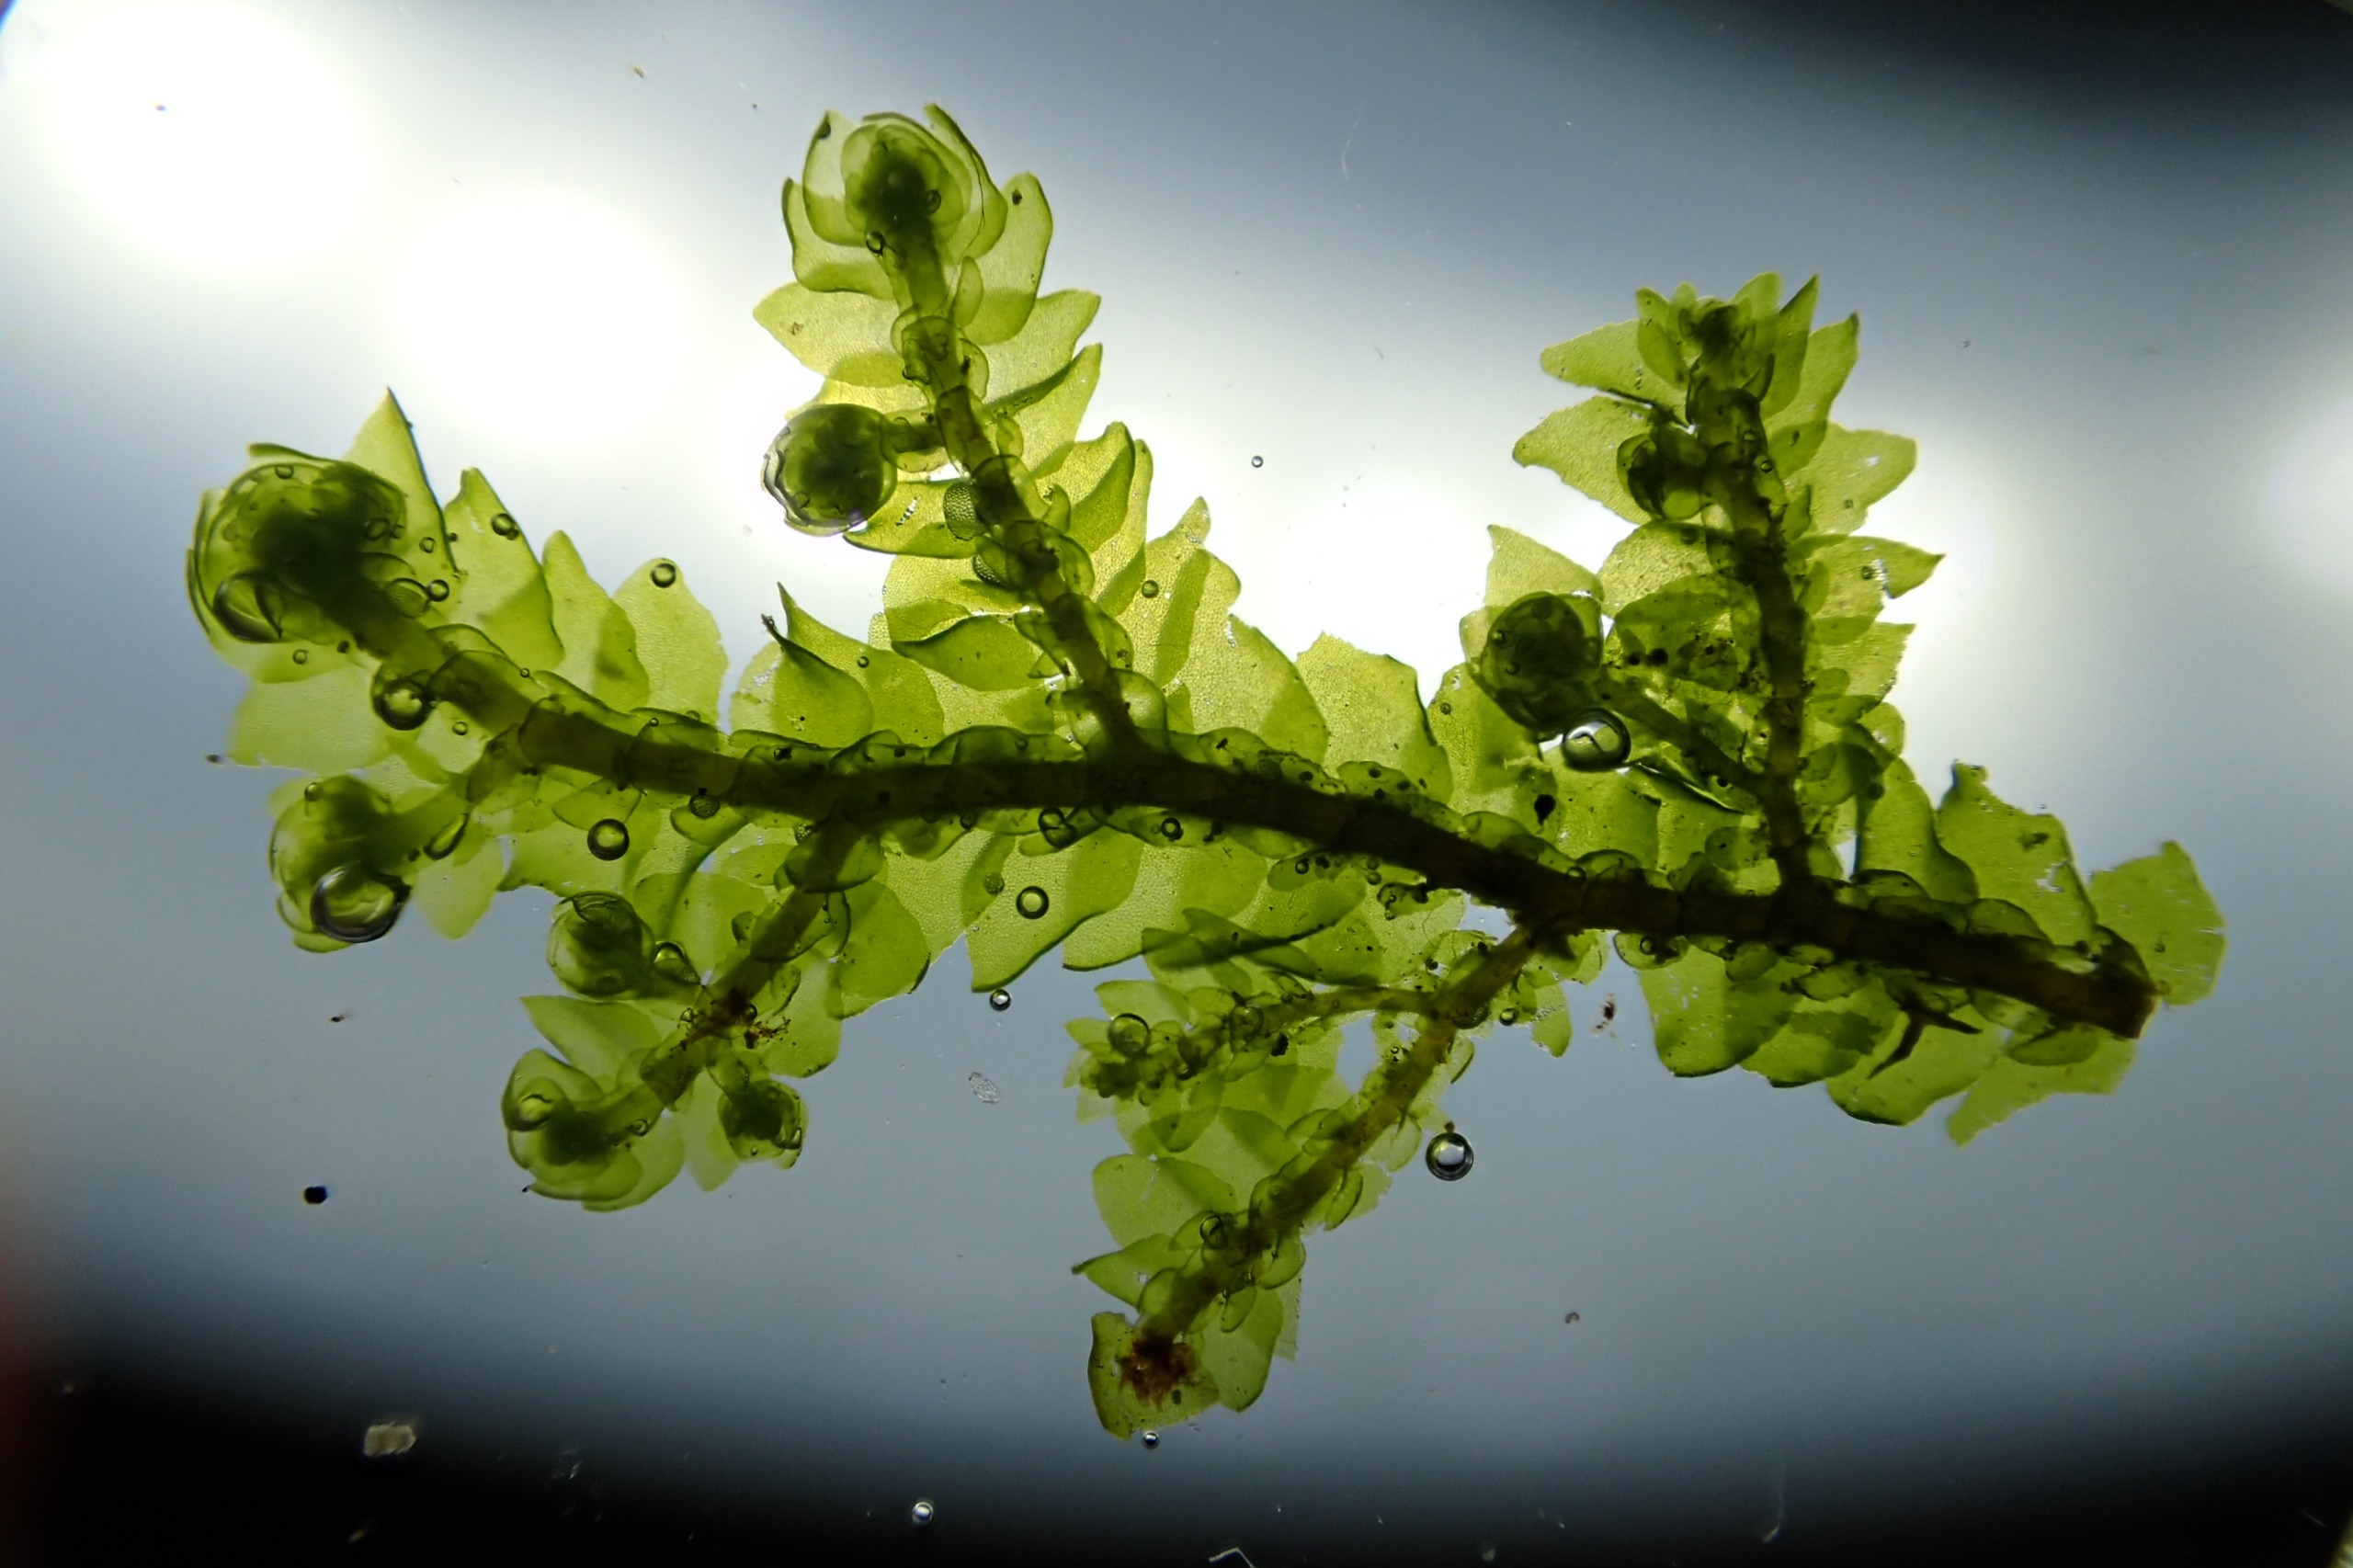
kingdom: Plantae
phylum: Marchantiophyta
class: Jungermanniopsida
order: Porellales
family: Porellaceae
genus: Porella
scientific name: Porella platyphylla
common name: Almindelig skælryg
